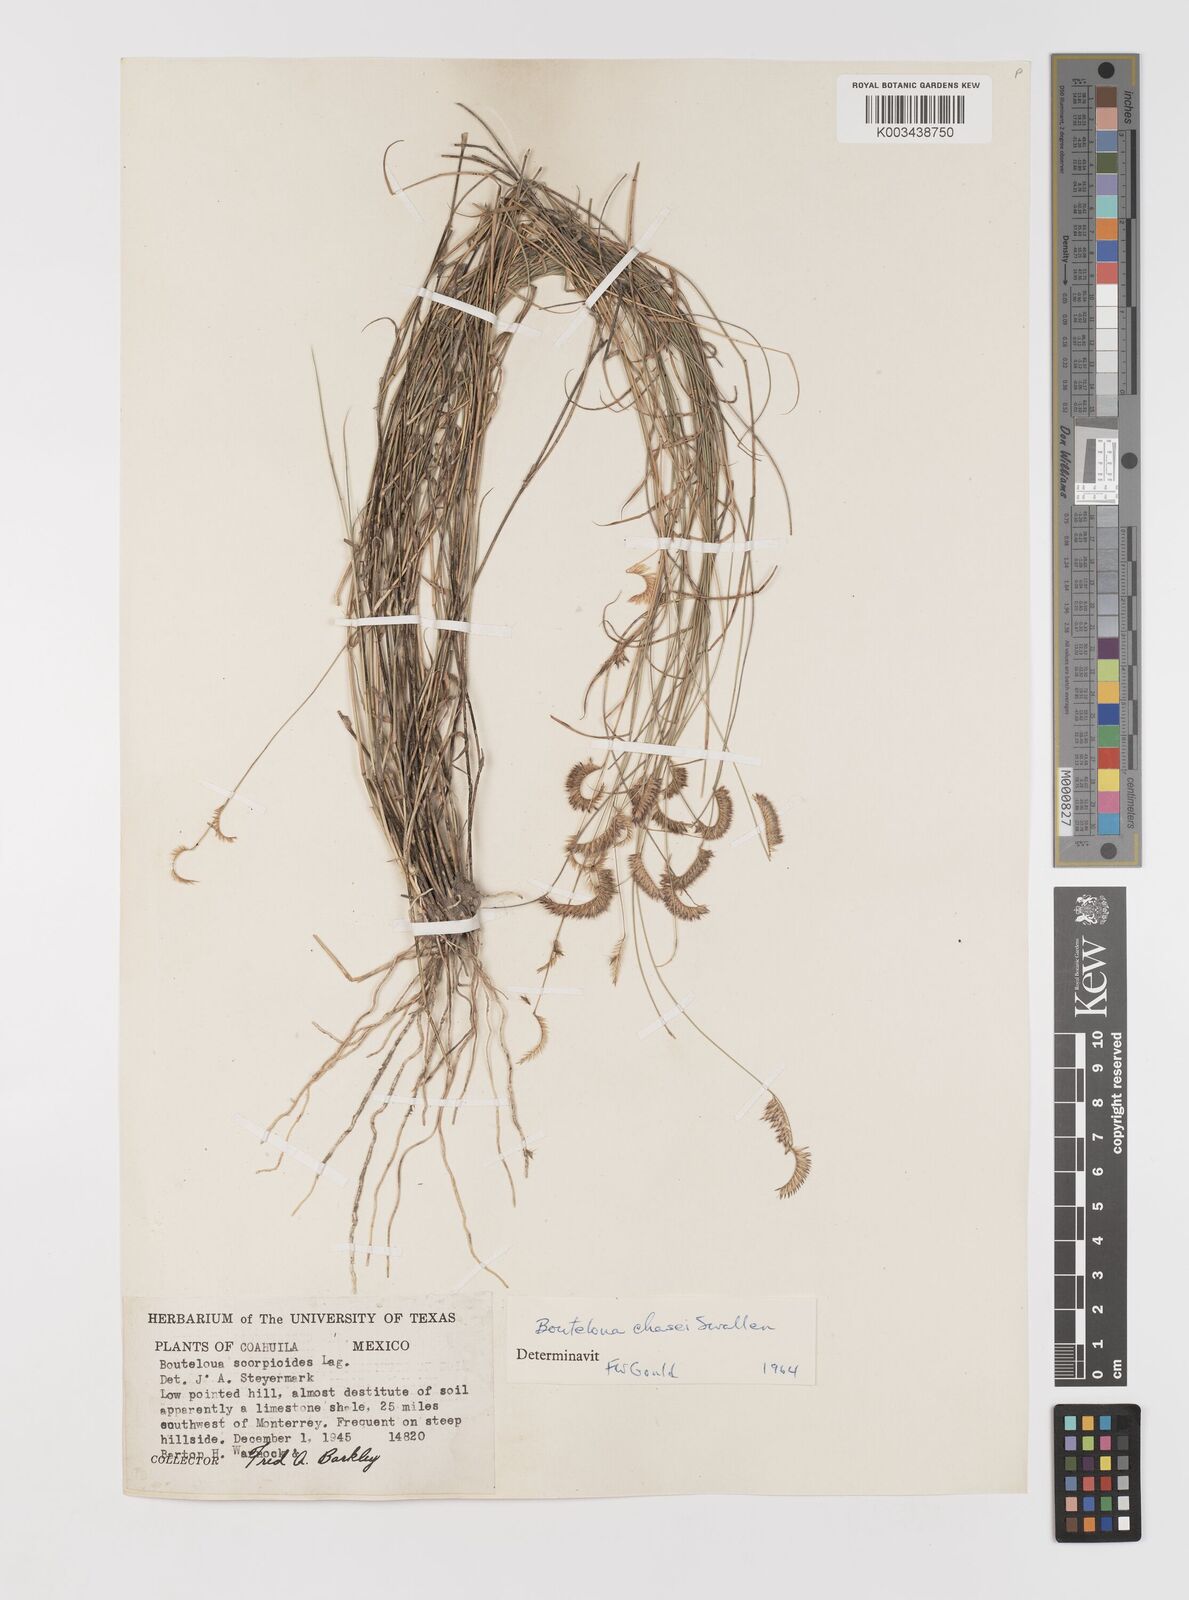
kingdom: Plantae
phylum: Tracheophyta
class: Liliopsida
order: Poales
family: Poaceae
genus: Bouteloua
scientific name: Bouteloua chasei
